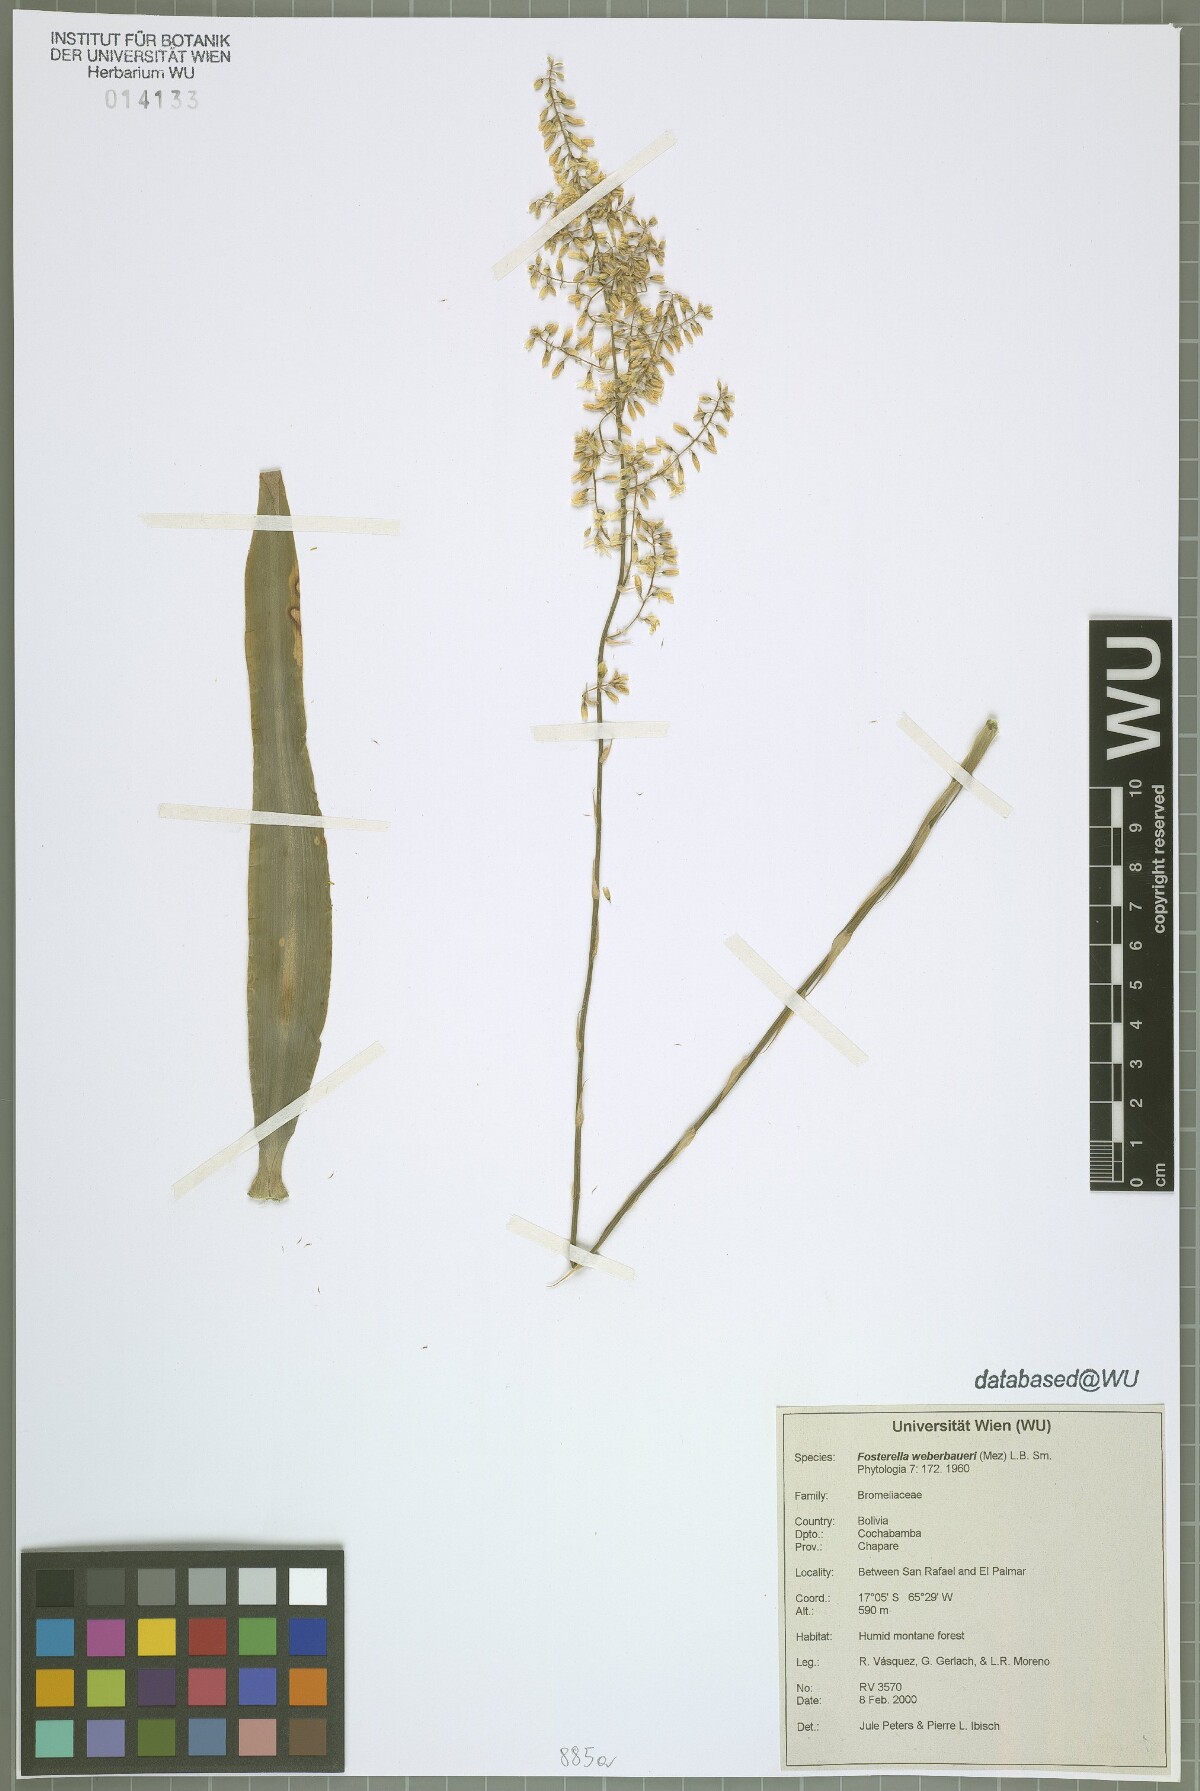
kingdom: Plantae
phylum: Tracheophyta
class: Liliopsida
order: Poales
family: Bromeliaceae
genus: Fosterella
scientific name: Fosterella weberbaueri
